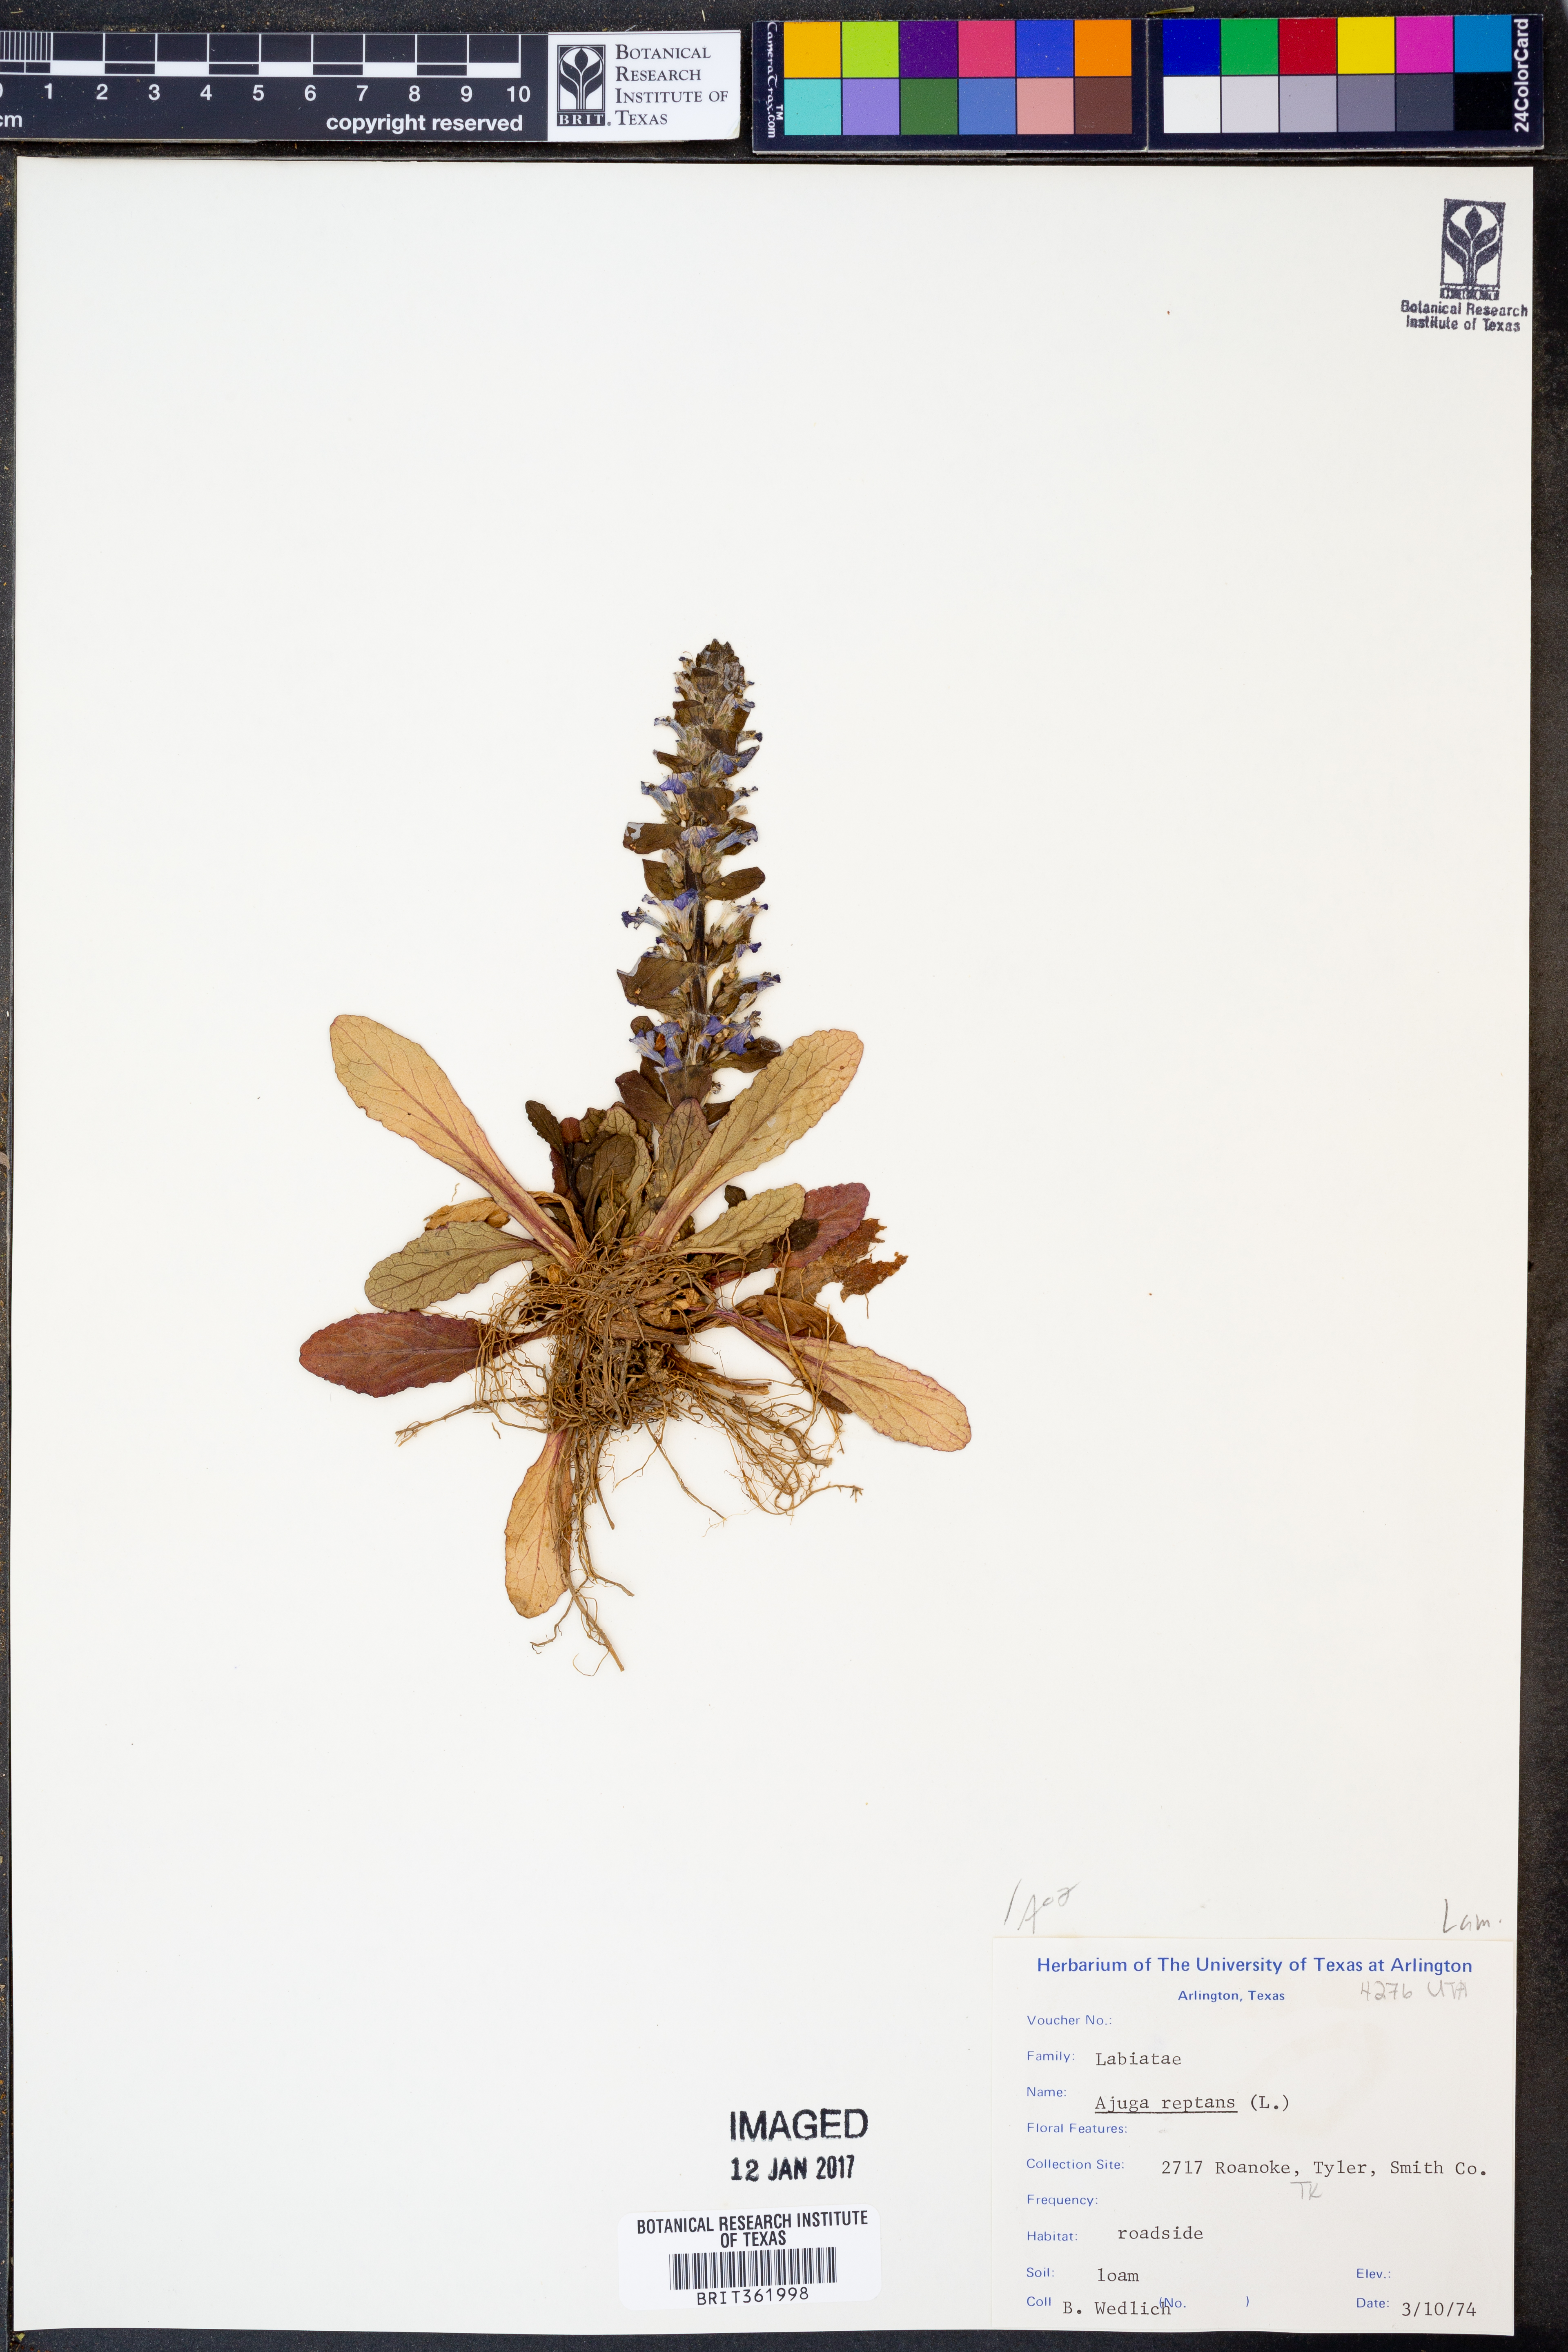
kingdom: Plantae
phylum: Tracheophyta
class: Magnoliopsida
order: Lamiales
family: Lamiaceae
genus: Ajuga
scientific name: Ajuga reptans
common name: Bugle
